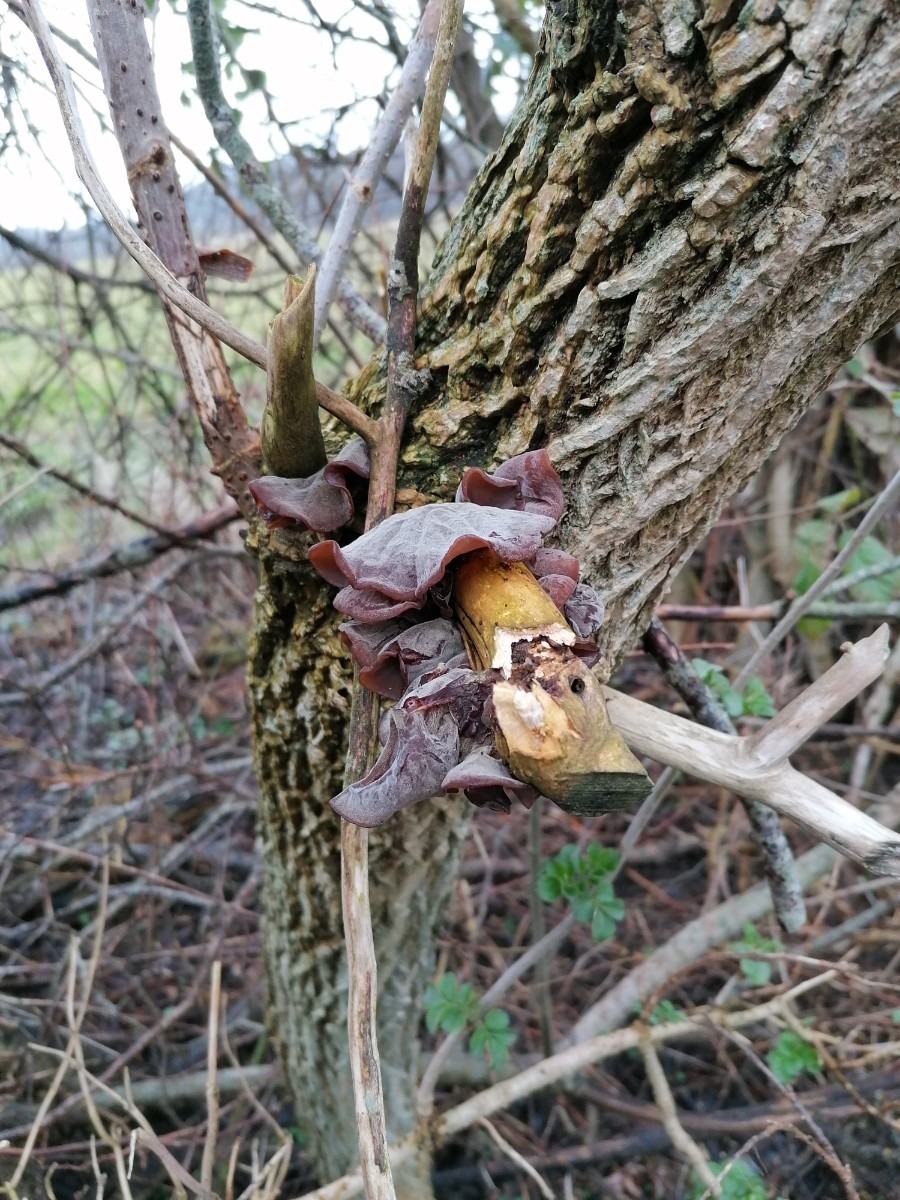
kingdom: Fungi
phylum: Basidiomycota
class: Agaricomycetes
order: Auriculariales
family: Auriculariaceae
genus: Auricularia
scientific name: Auricularia auricula-judae
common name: almindelig judasøre
